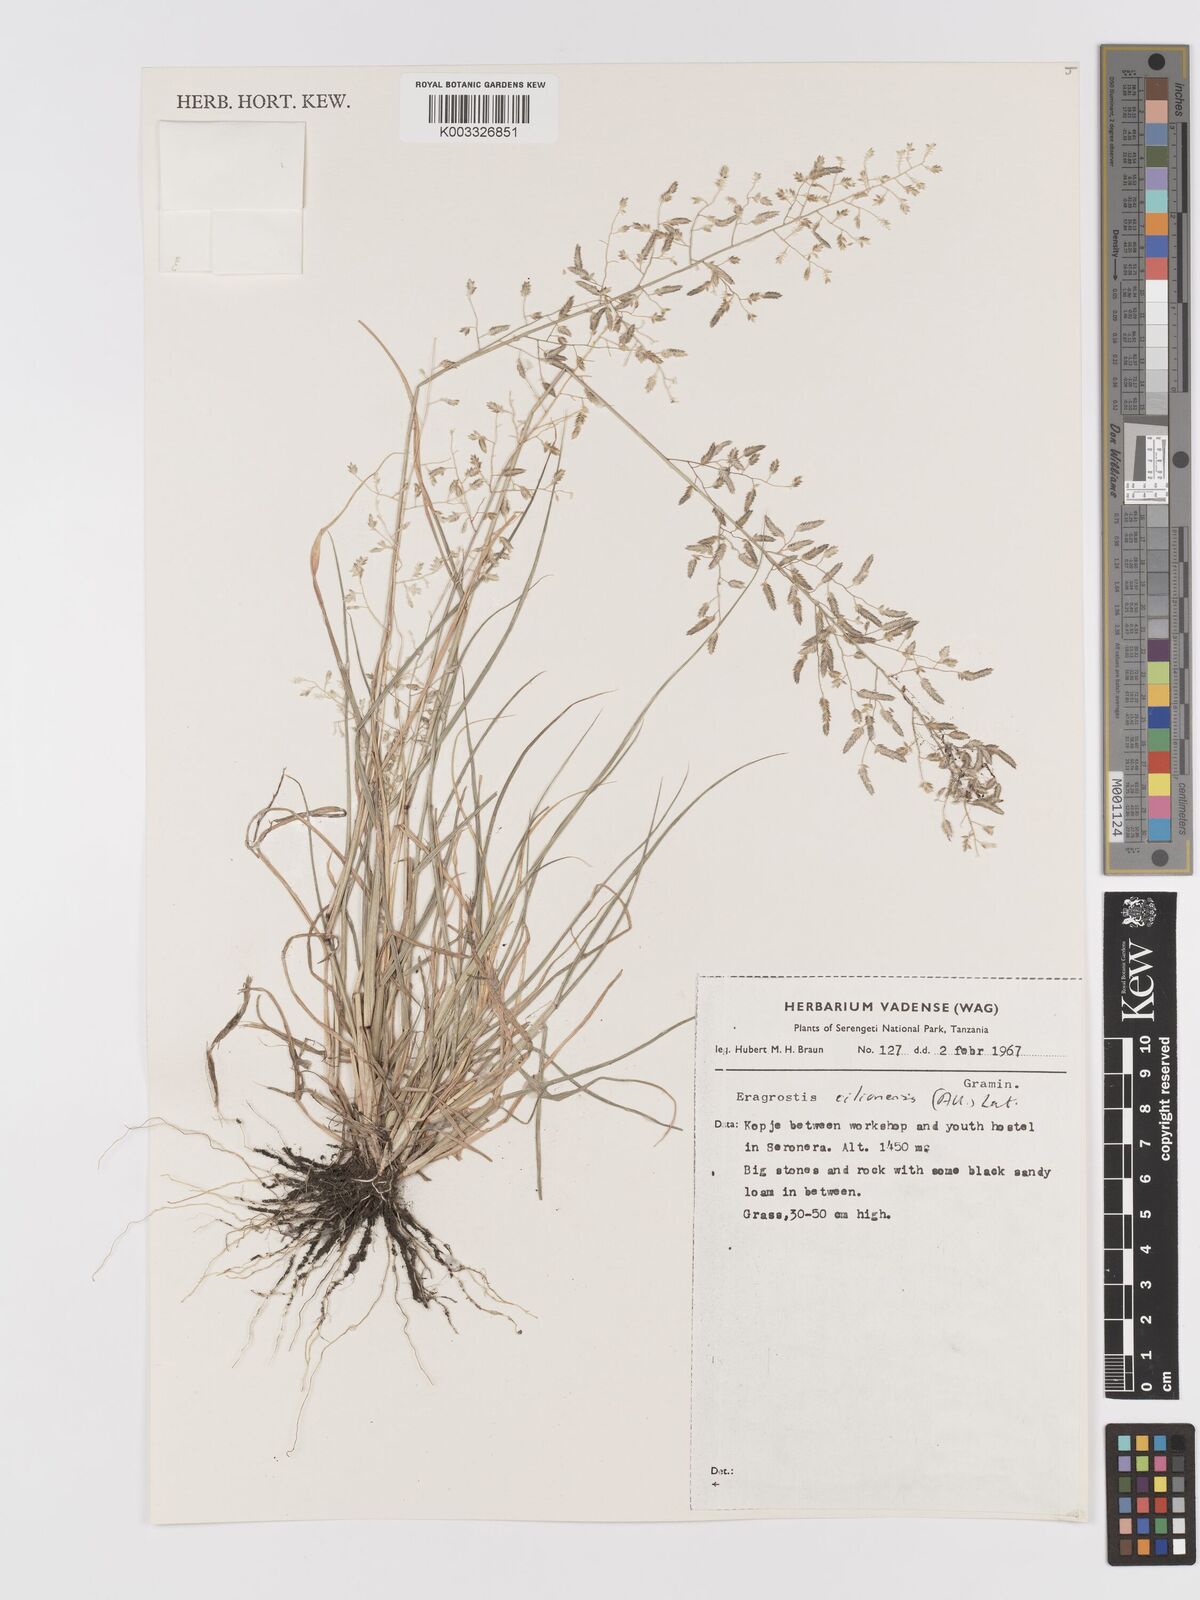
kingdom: Plantae
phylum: Tracheophyta
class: Liliopsida
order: Poales
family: Poaceae
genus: Eragrostis
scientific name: Eragrostis cilianensis
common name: Stinkgrass
